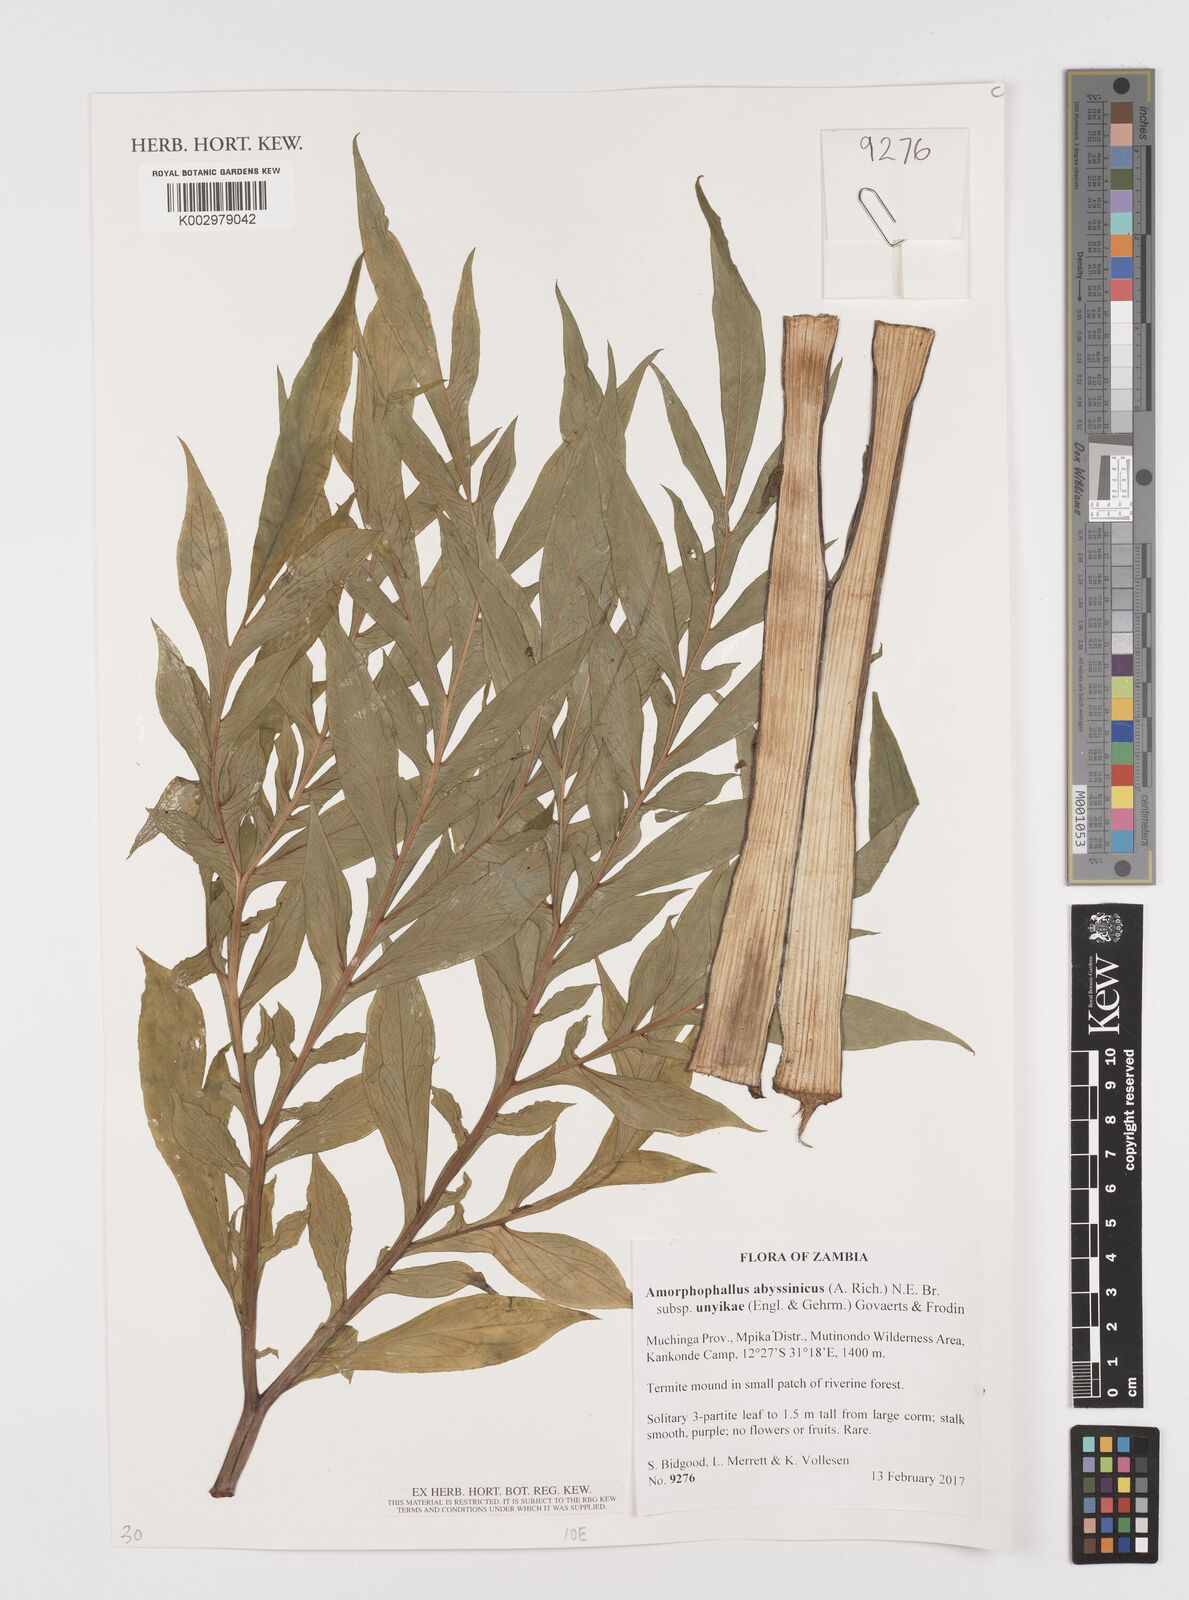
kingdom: Plantae
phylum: Tracheophyta
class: Liliopsida
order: Alismatales
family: Araceae
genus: Amorphophallus
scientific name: Amorphophallus abyssinicus
